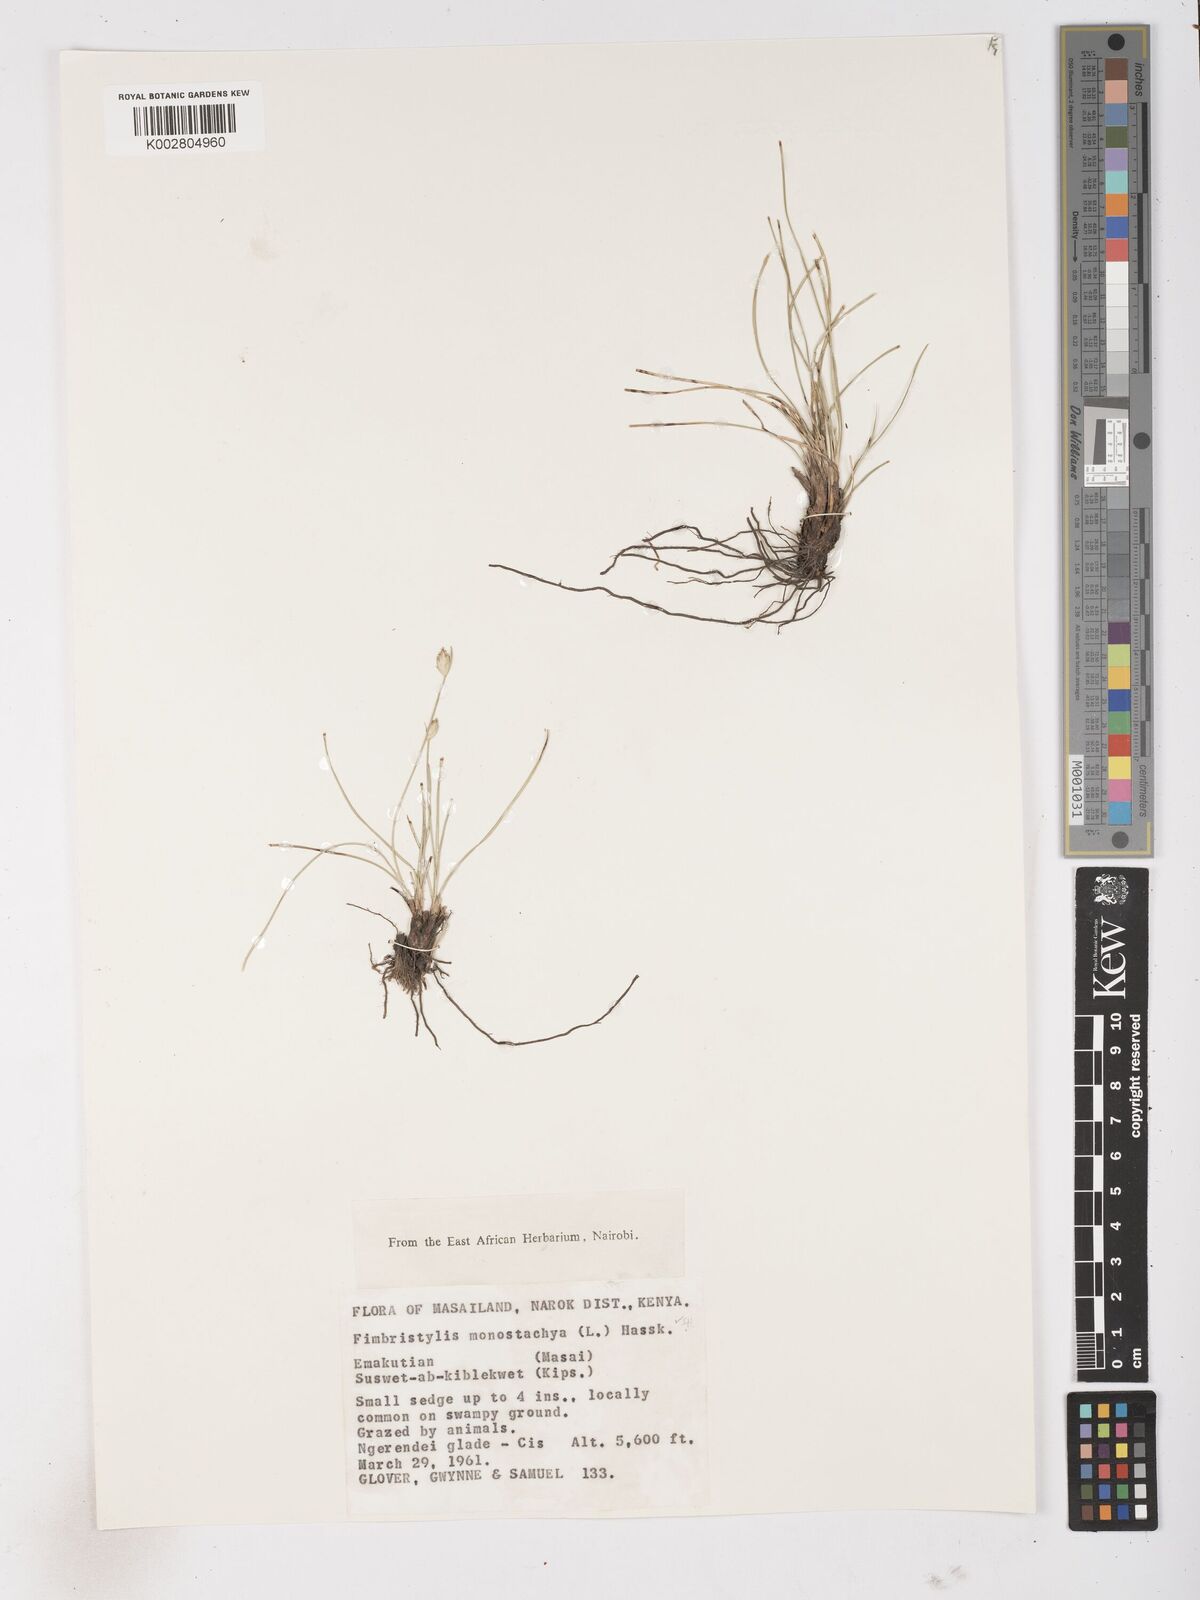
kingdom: Plantae
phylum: Tracheophyta
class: Liliopsida
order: Poales
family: Cyperaceae
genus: Abildgaardia
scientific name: Abildgaardia ovata
